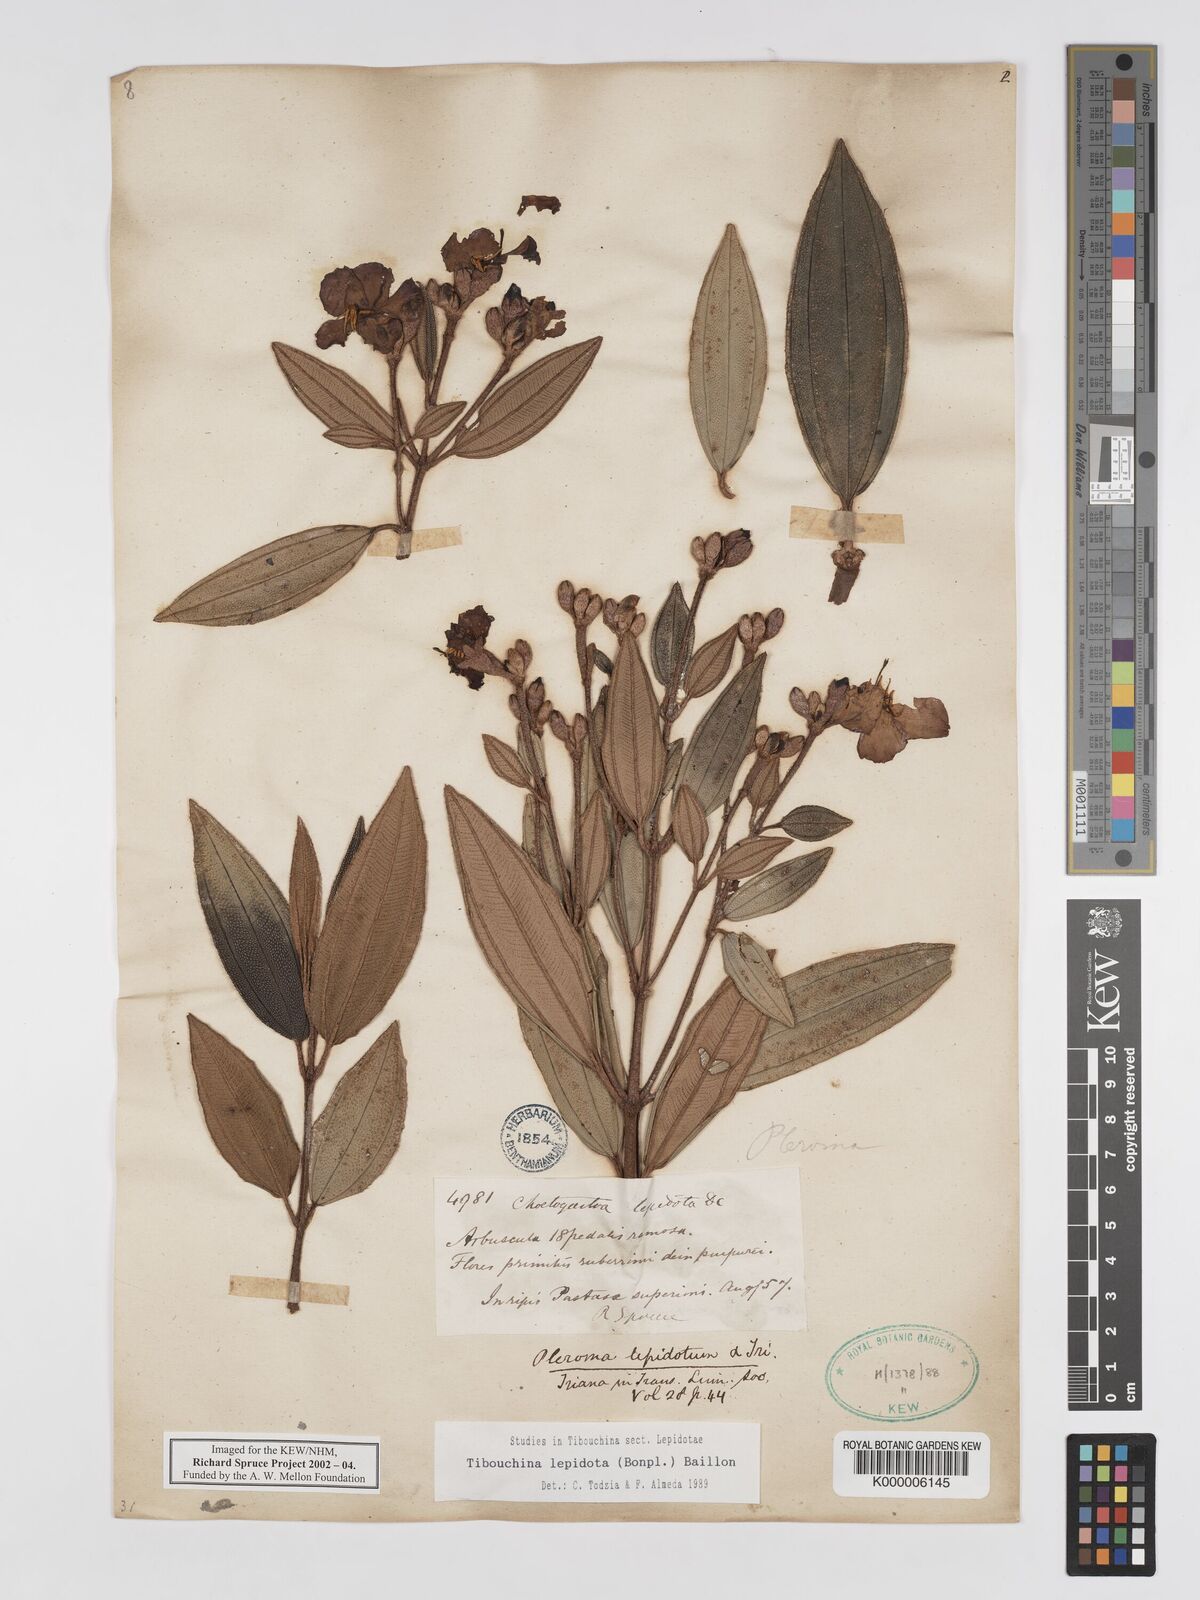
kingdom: Plantae
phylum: Tracheophyta
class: Magnoliopsida
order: Myrtales
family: Melastomataceae
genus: Andesanthus
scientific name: Andesanthus lepidotus
